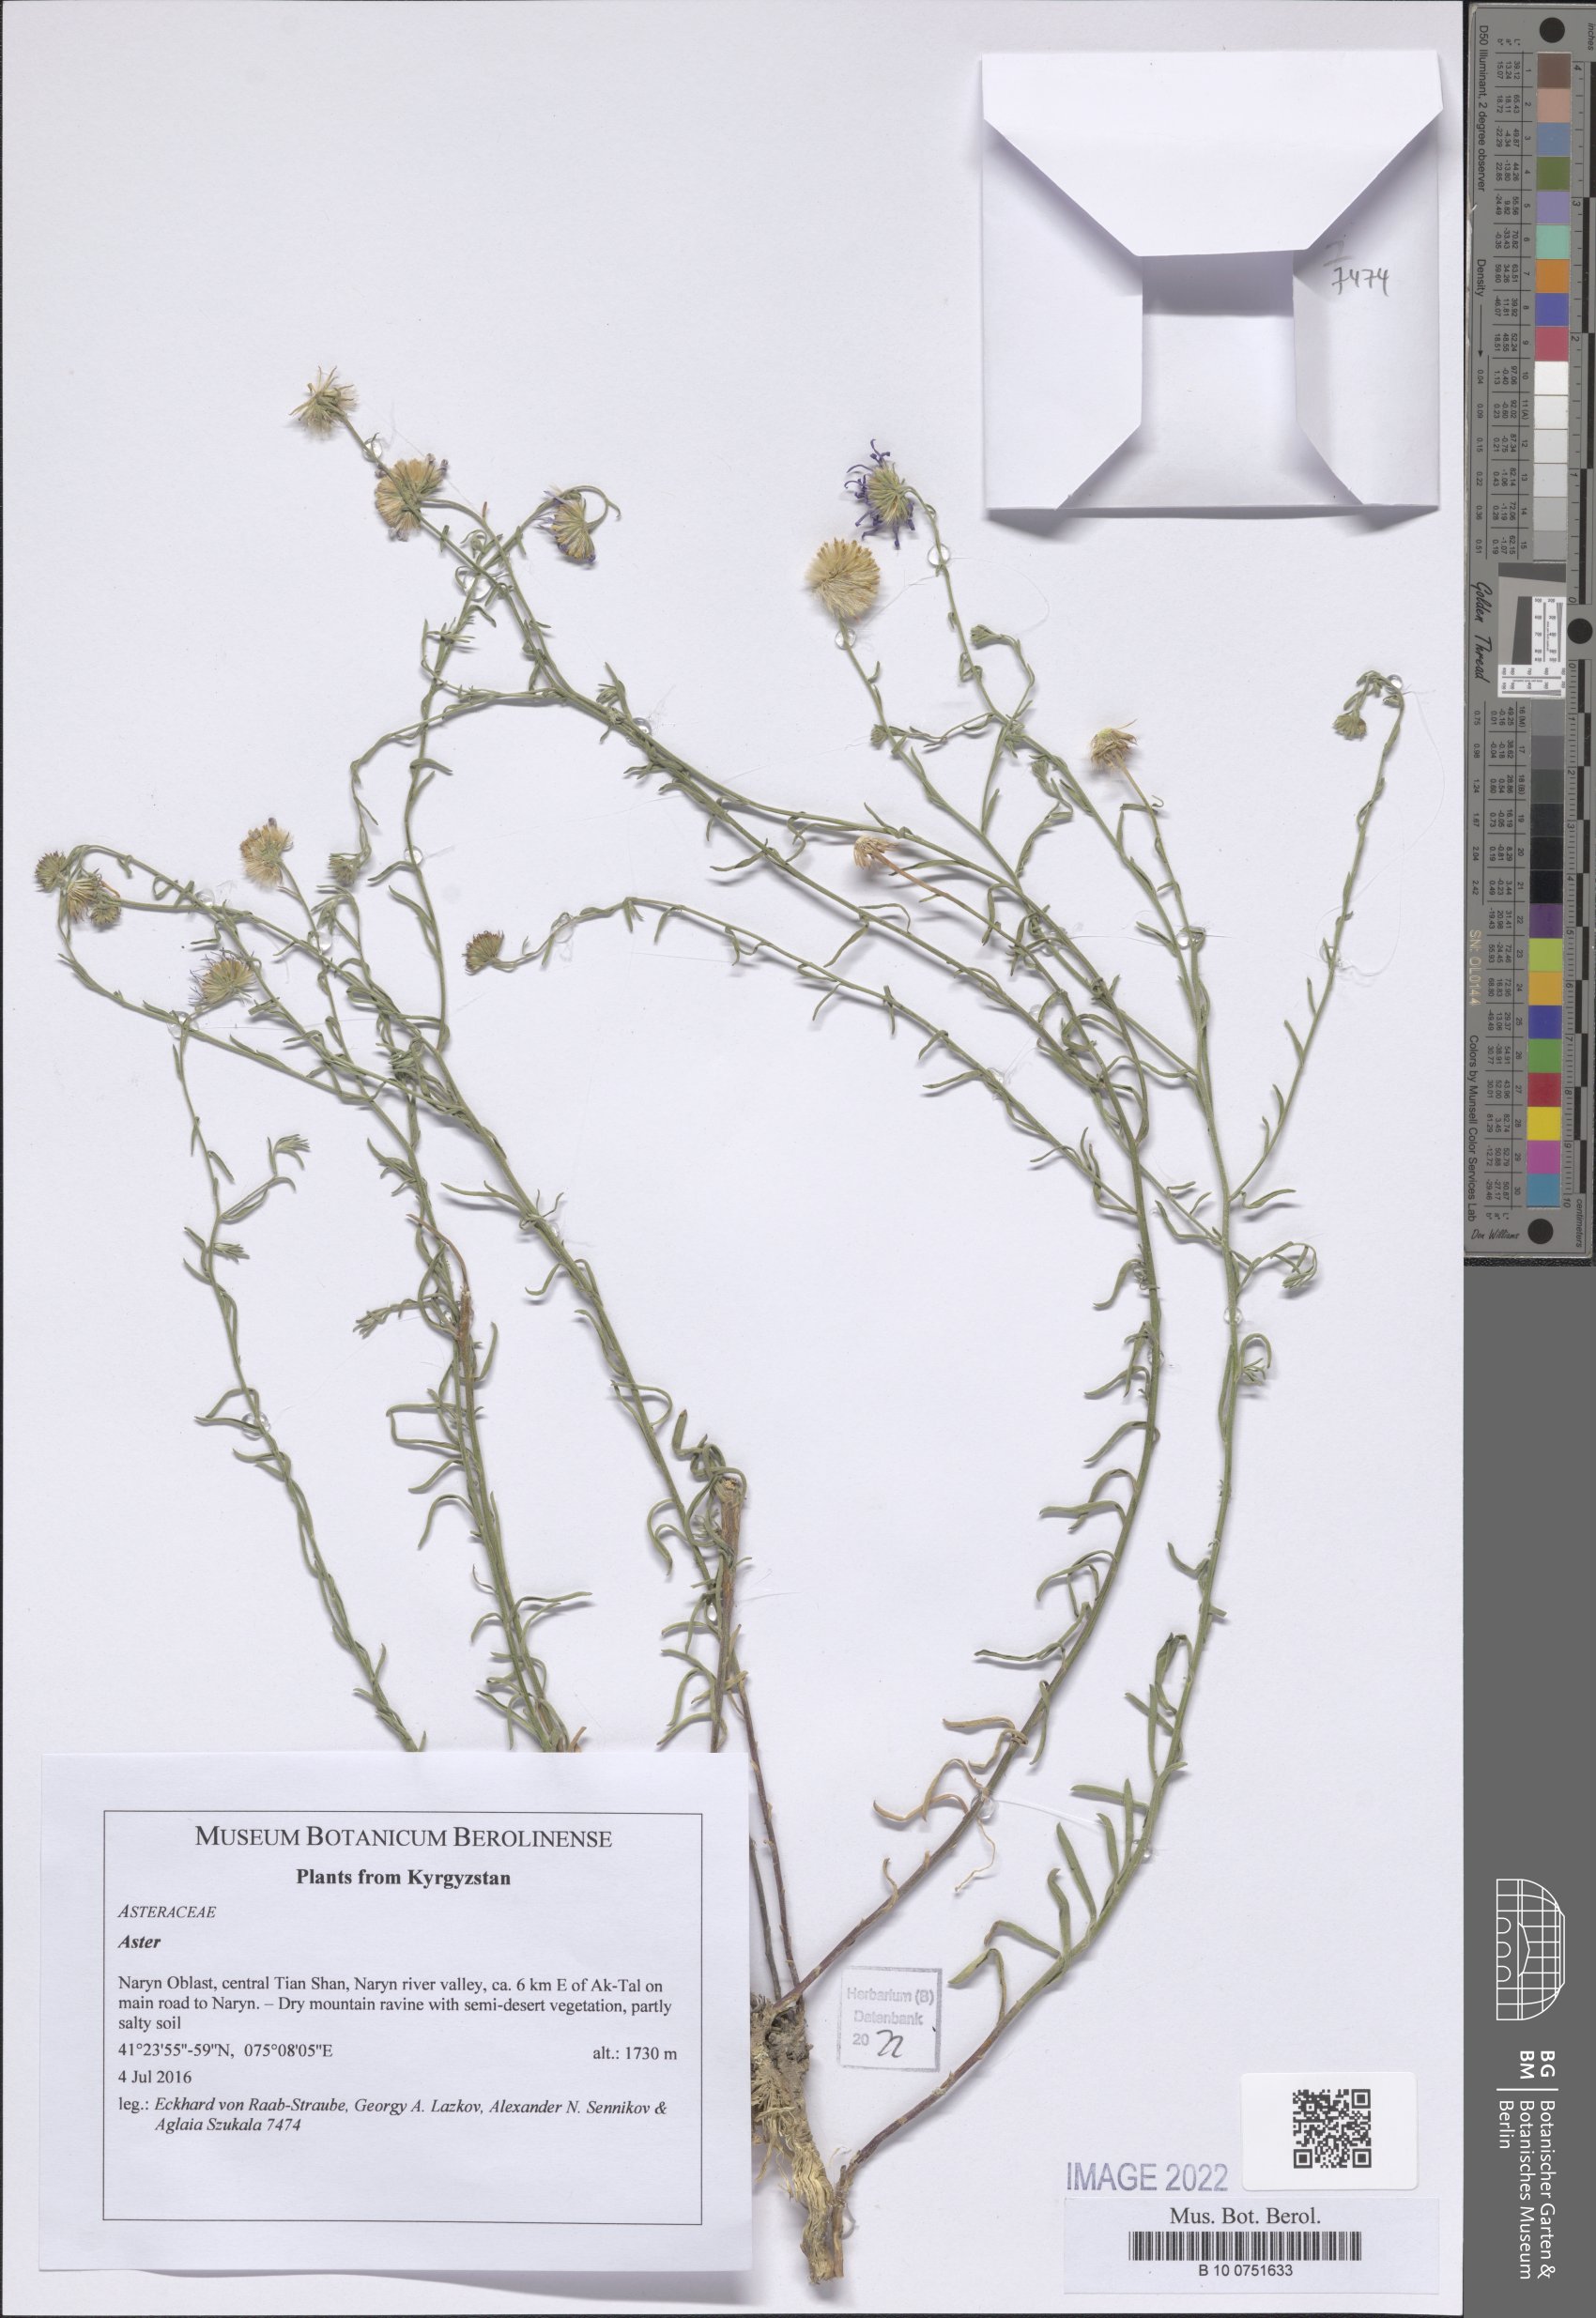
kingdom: Plantae
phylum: Tracheophyta
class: Magnoliopsida
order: Asterales
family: Asteraceae
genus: Aster
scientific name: Aster
